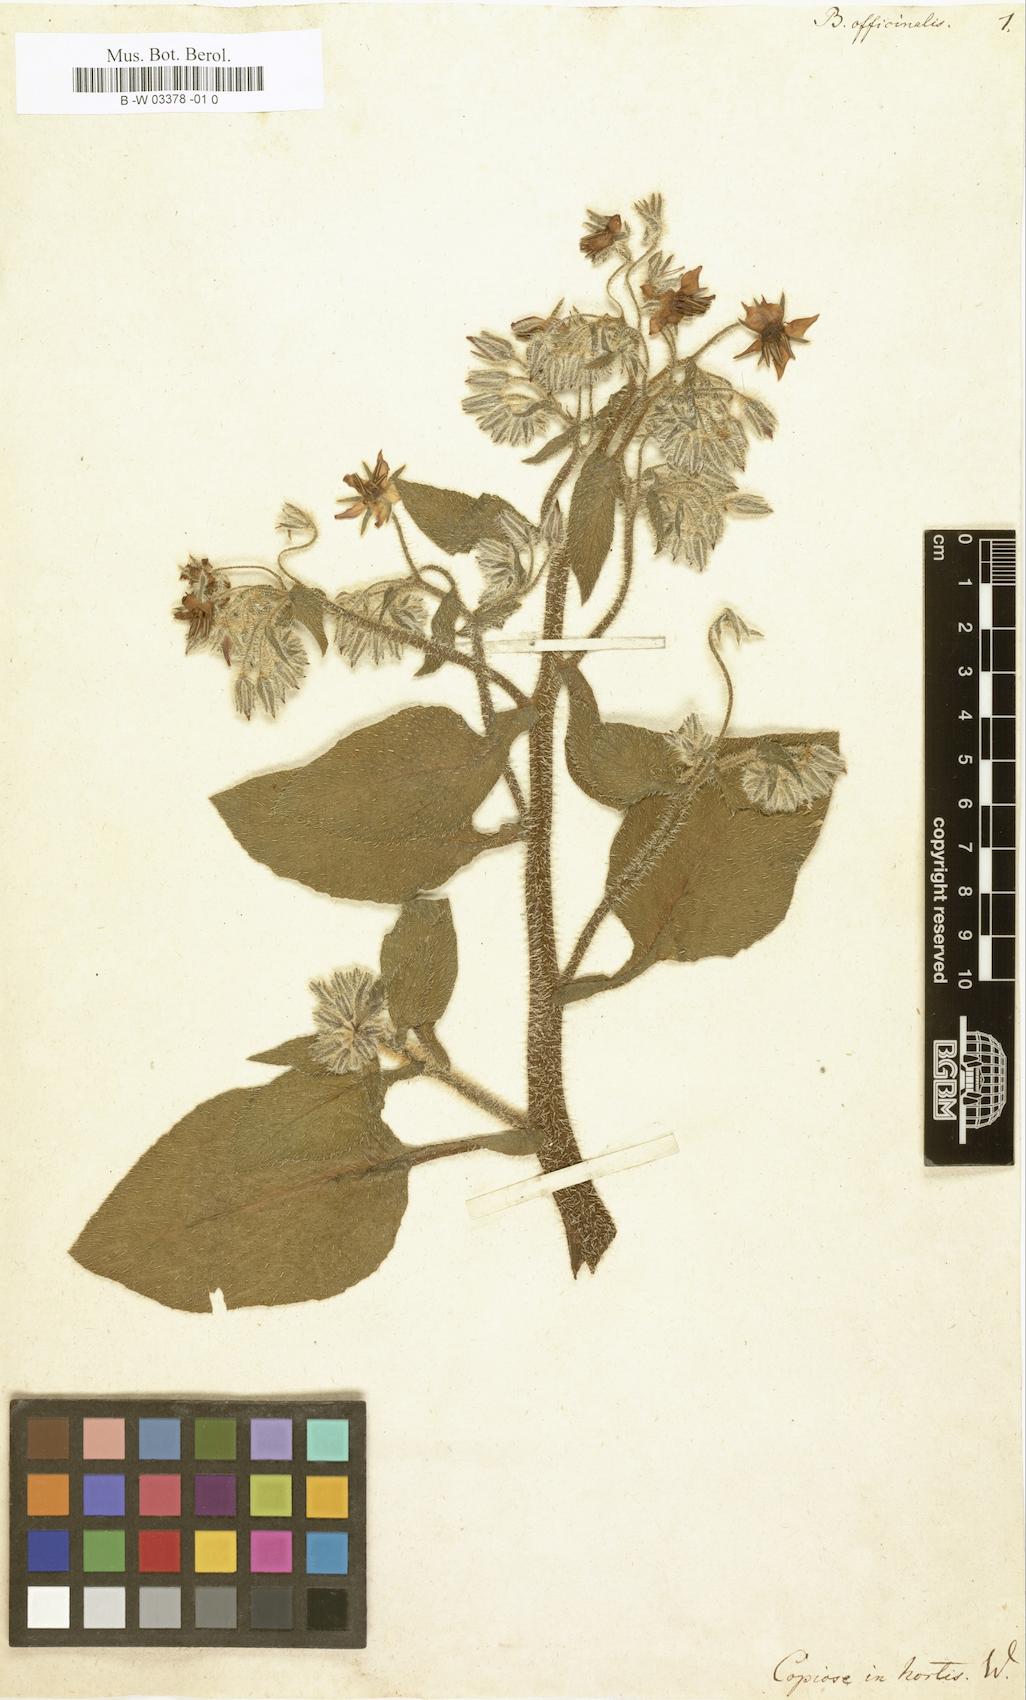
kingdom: Plantae
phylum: Tracheophyta
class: Magnoliopsida
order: Boraginales
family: Boraginaceae
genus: Borago
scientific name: Borago officinalis
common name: Borage
